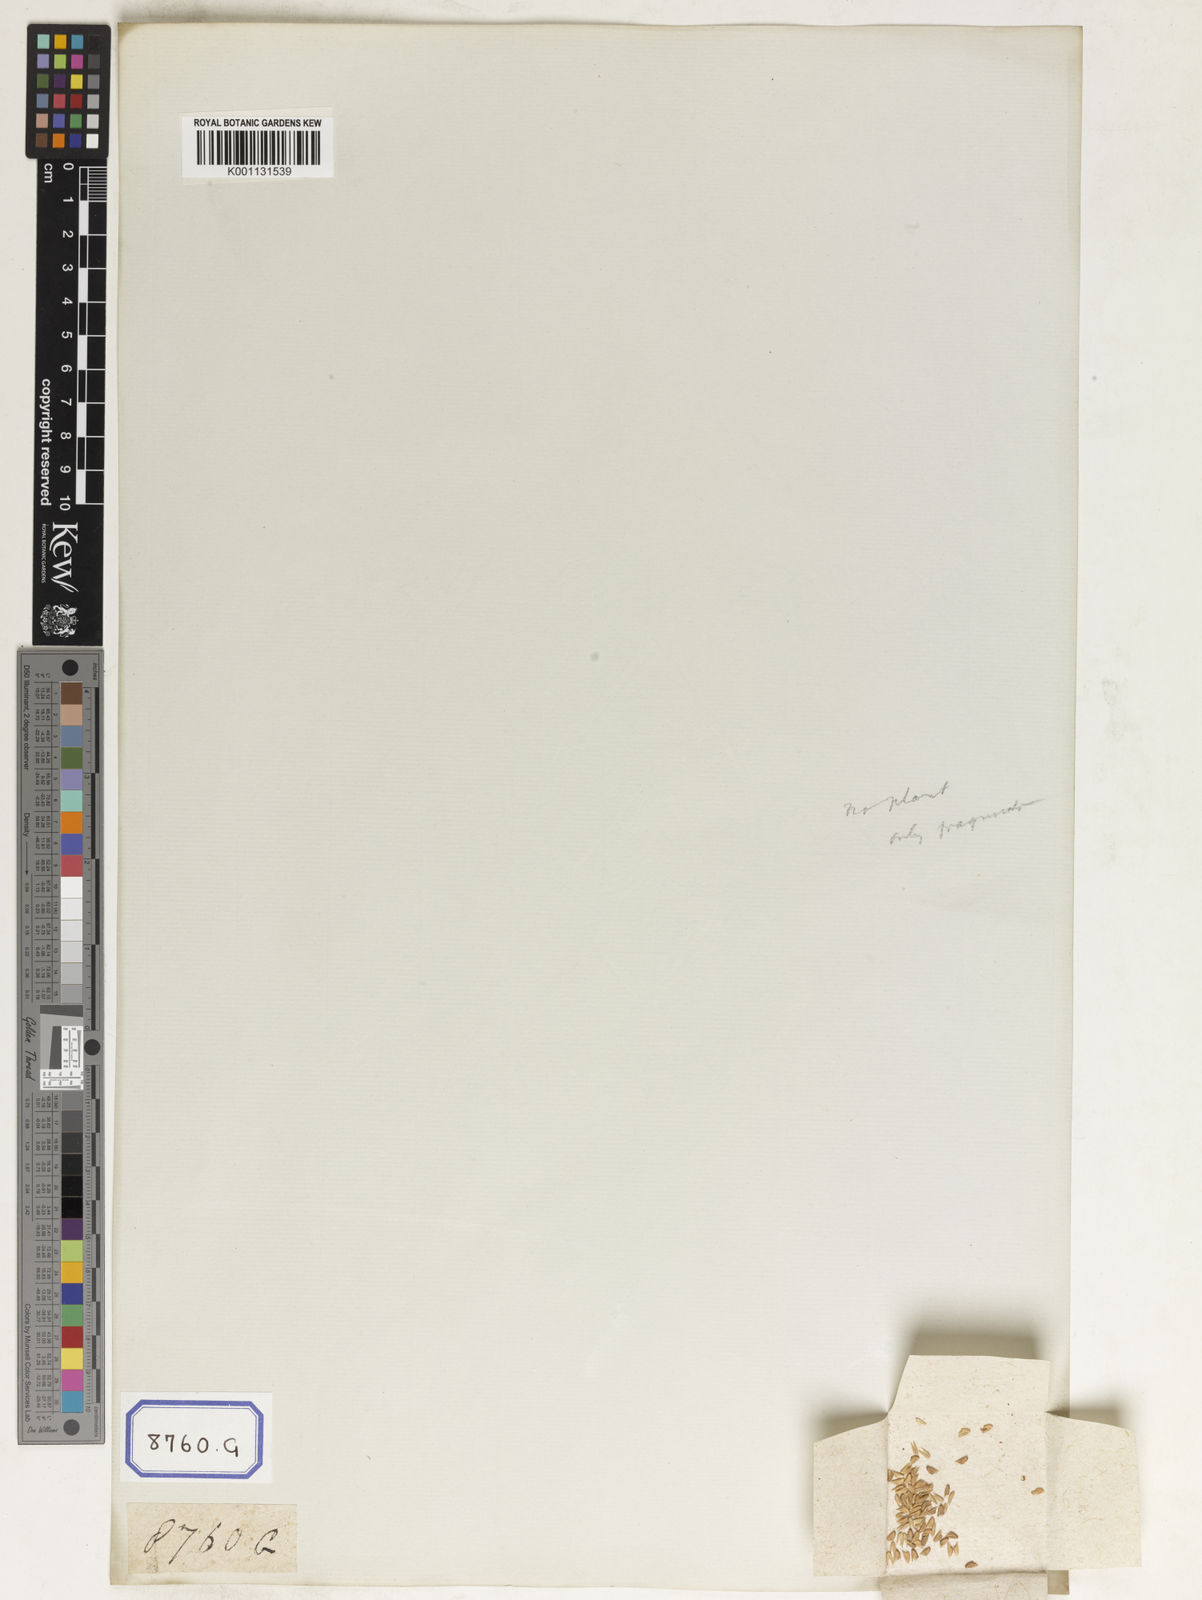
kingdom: Plantae
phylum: Tracheophyta
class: Liliopsida
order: Poales
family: Poaceae
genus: Apluda
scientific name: Apluda
